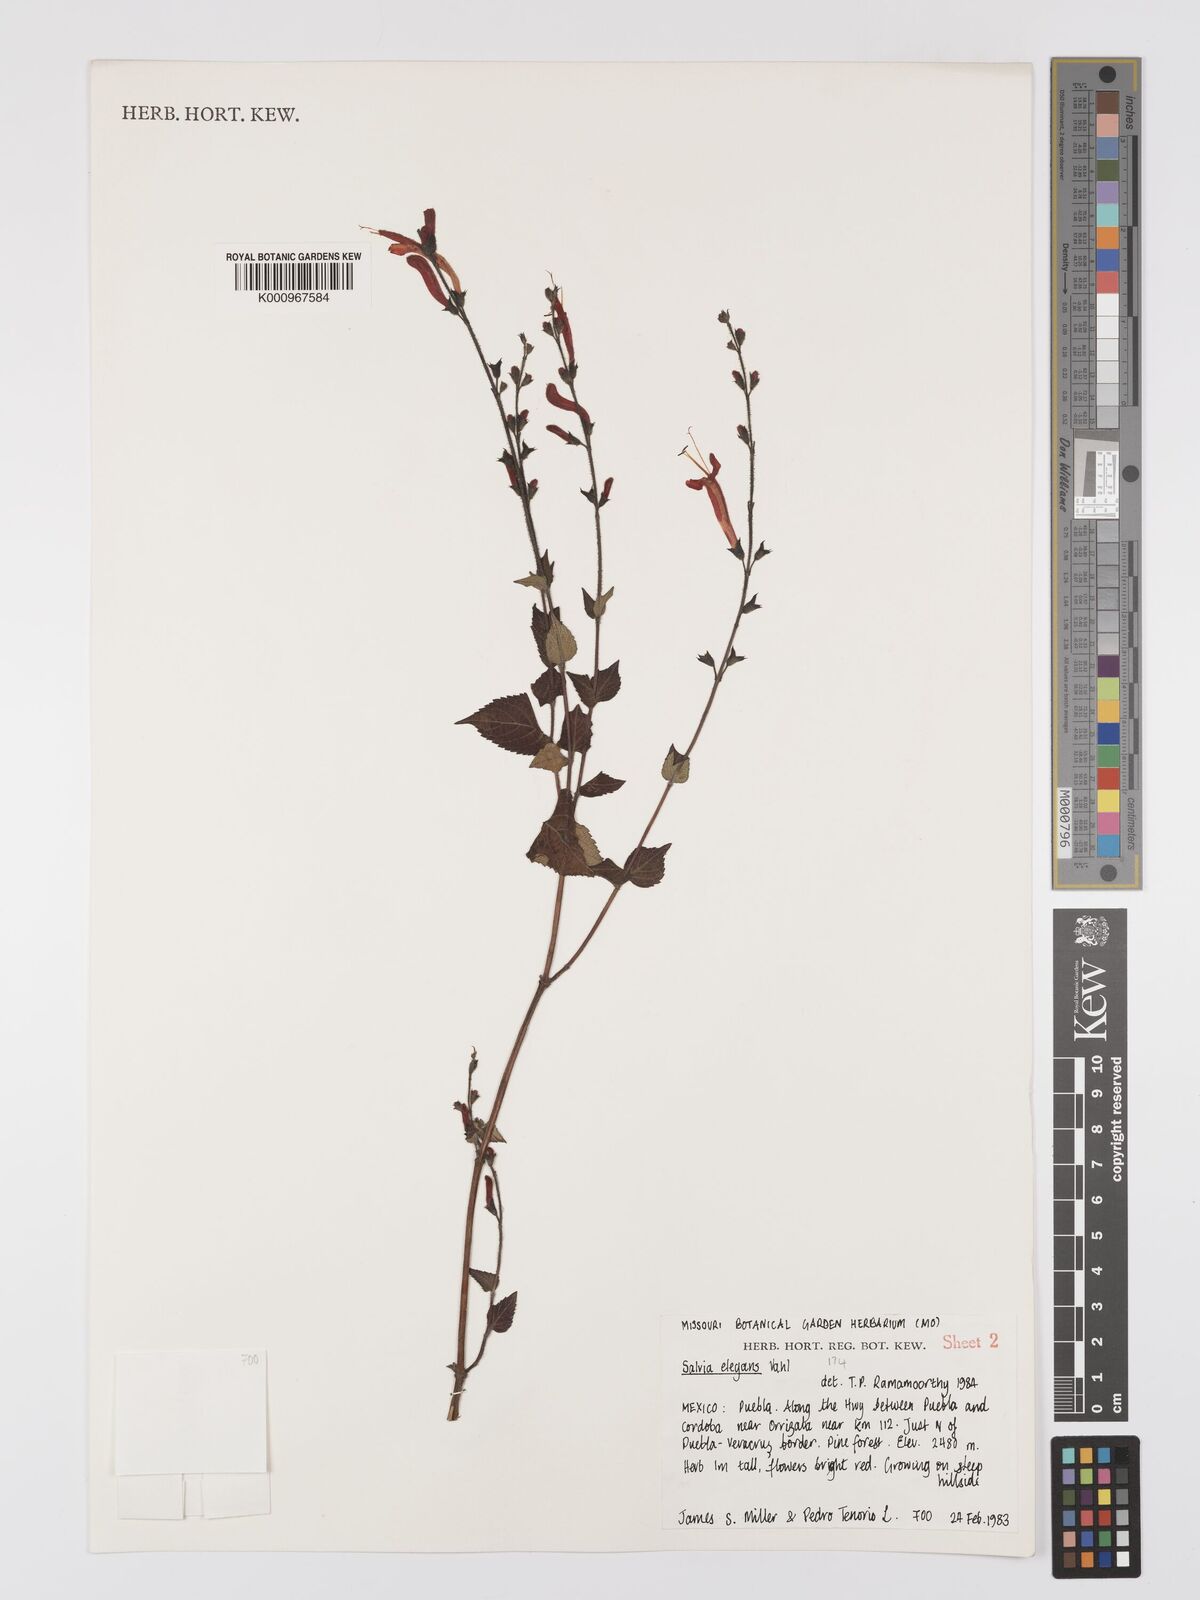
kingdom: Plantae
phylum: Tracheophyta
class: Magnoliopsida
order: Lamiales
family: Lamiaceae
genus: Salvia
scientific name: Salvia elegans
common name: Pineapple sage
